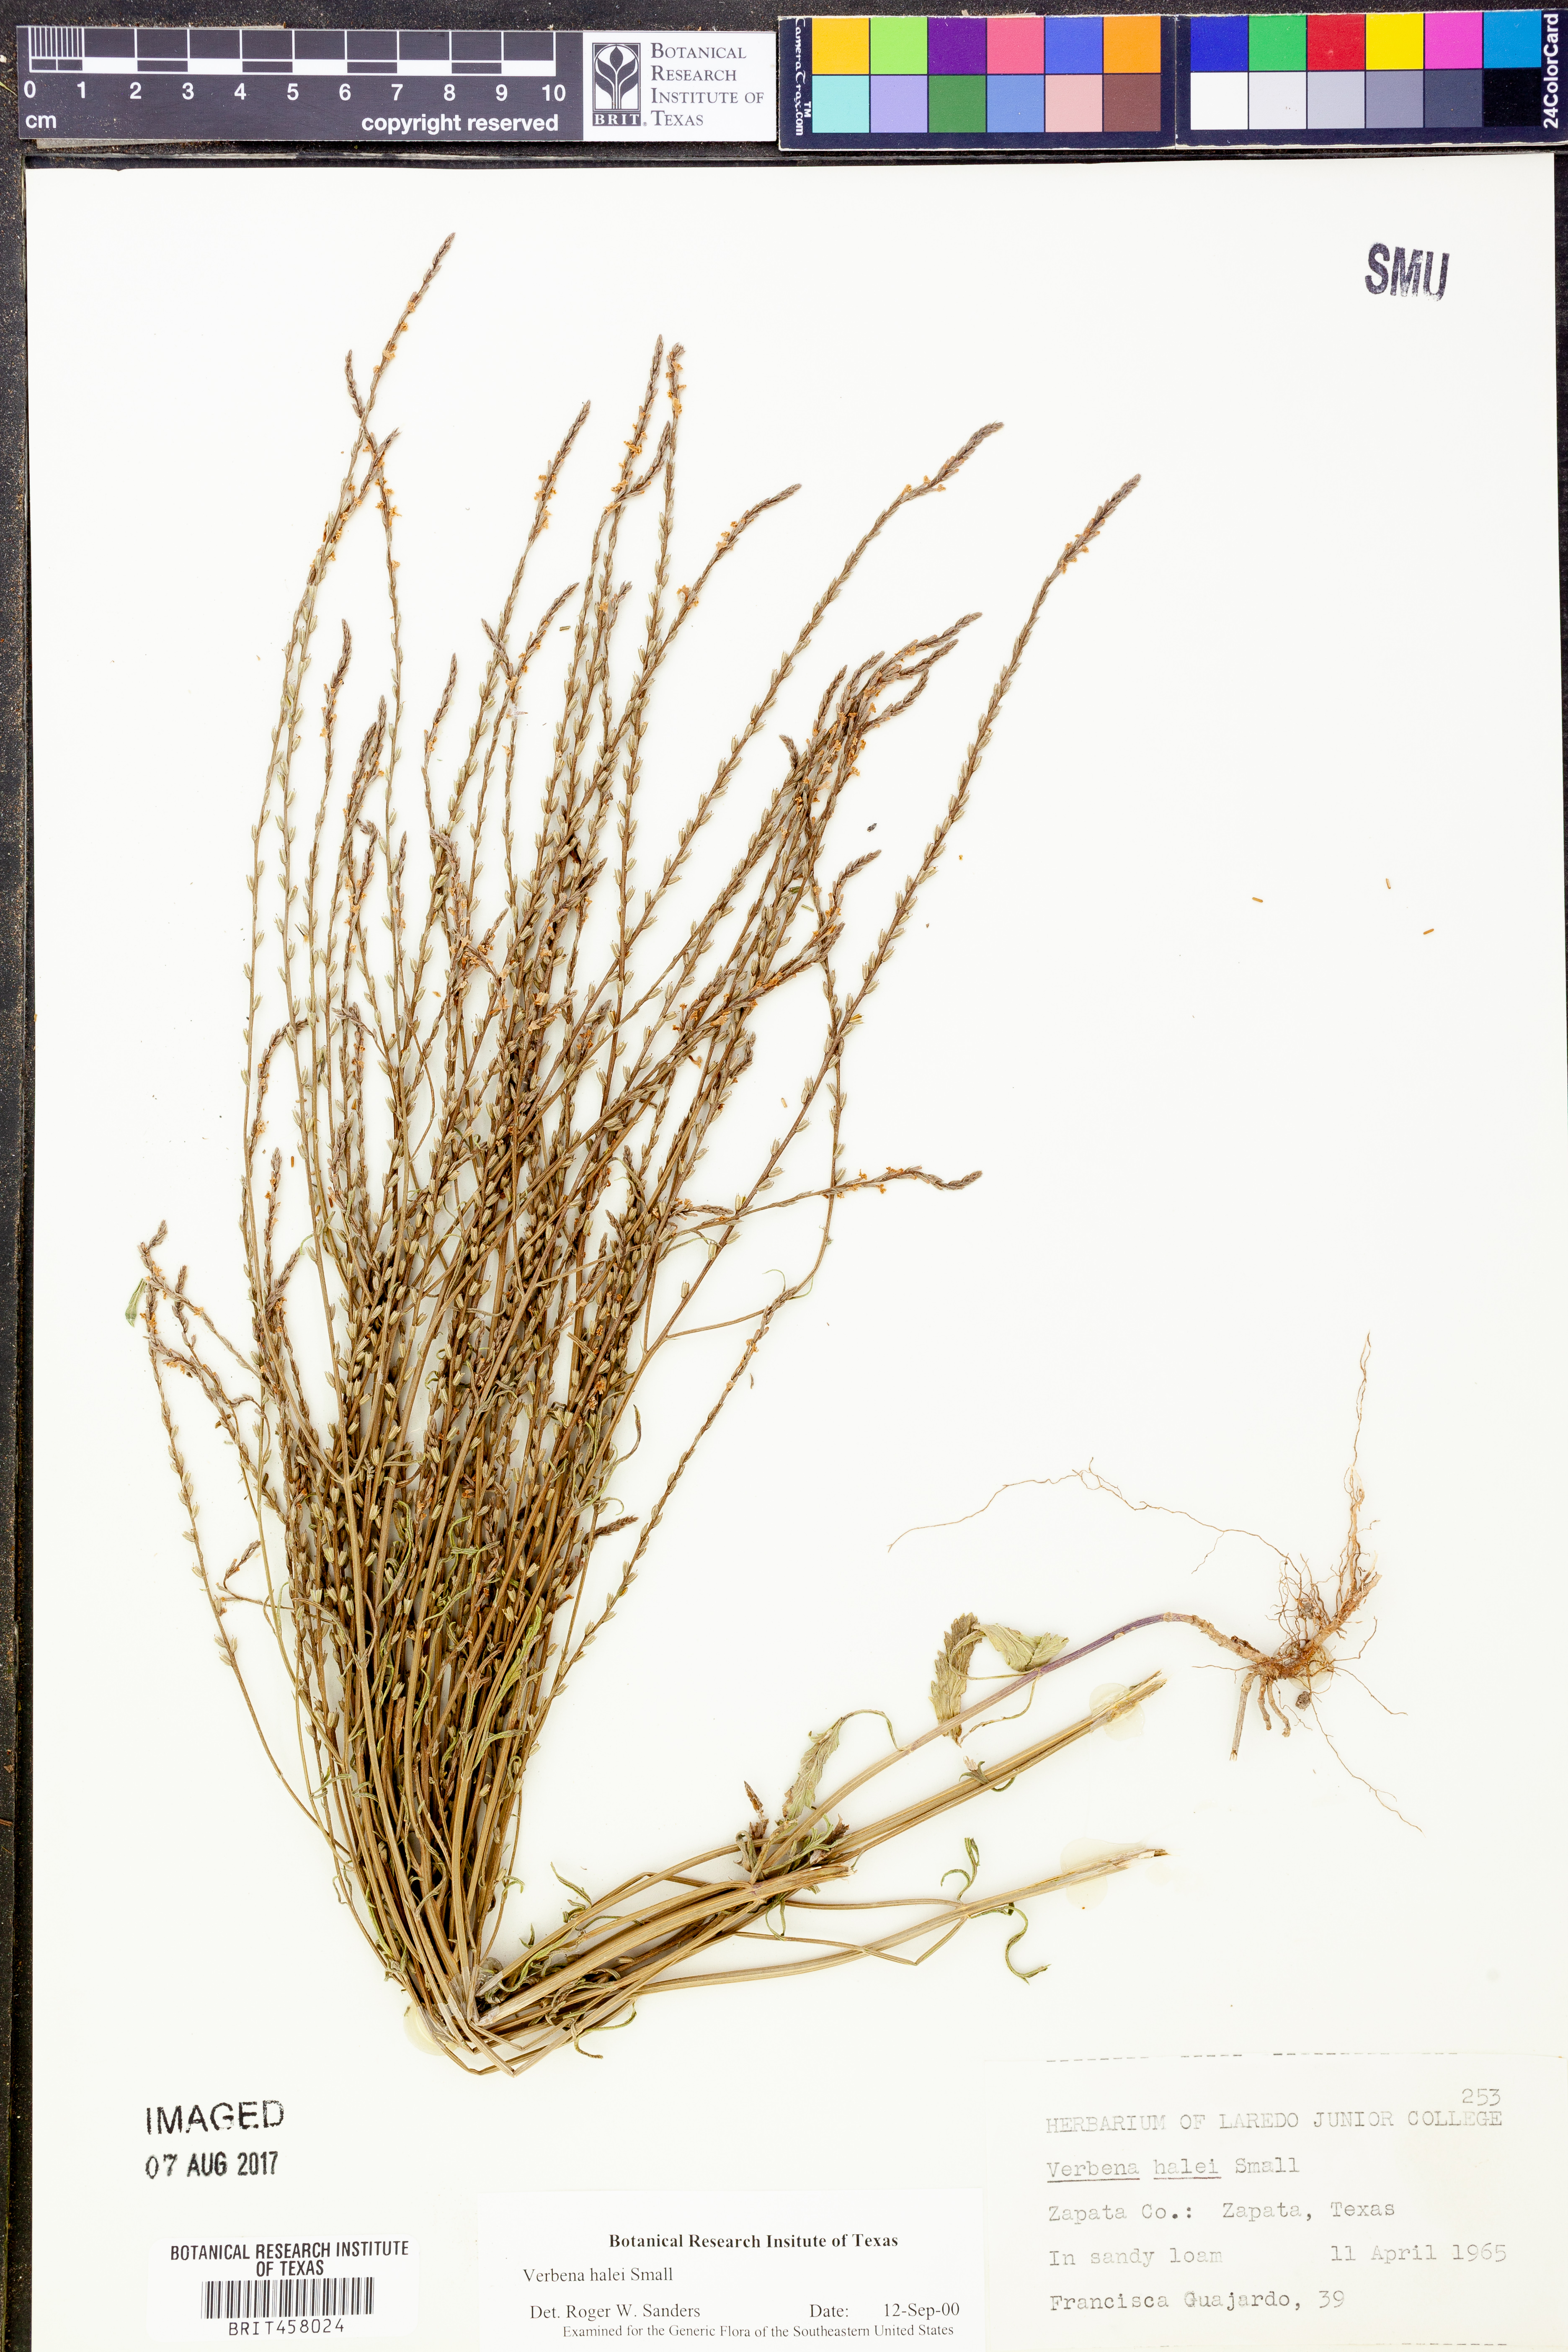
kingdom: Plantae
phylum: Tracheophyta
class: Magnoliopsida
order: Lamiales
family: Verbenaceae
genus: Verbena
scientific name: Verbena halei
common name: Texas vervain
